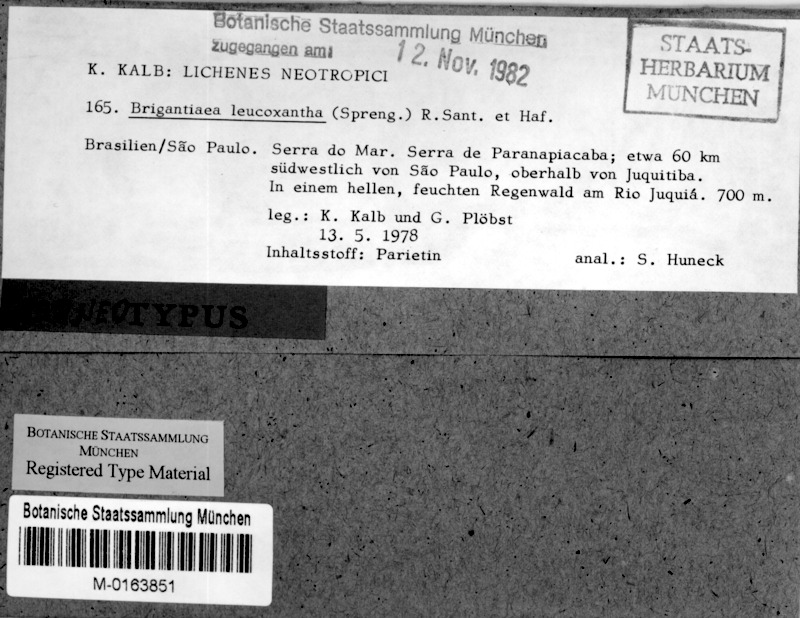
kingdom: Fungi
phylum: Ascomycota
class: Lecanoromycetes
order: Teloschistales
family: Brigantiaeaceae
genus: Brigantiaea
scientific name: Brigantiaea leucoxantha
